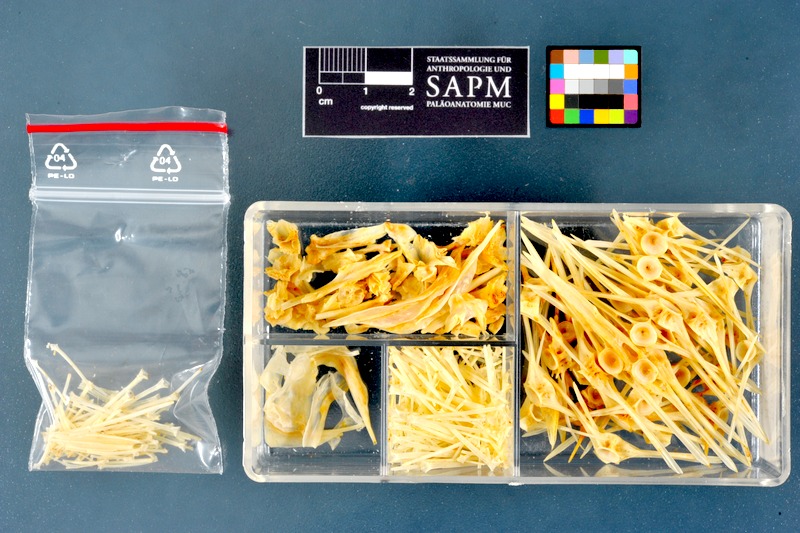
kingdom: Animalia
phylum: Chordata
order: Pleuronectiformes
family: Pleuronectidae
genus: Microstomus
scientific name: Microstomus kitt
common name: Lemon sole
